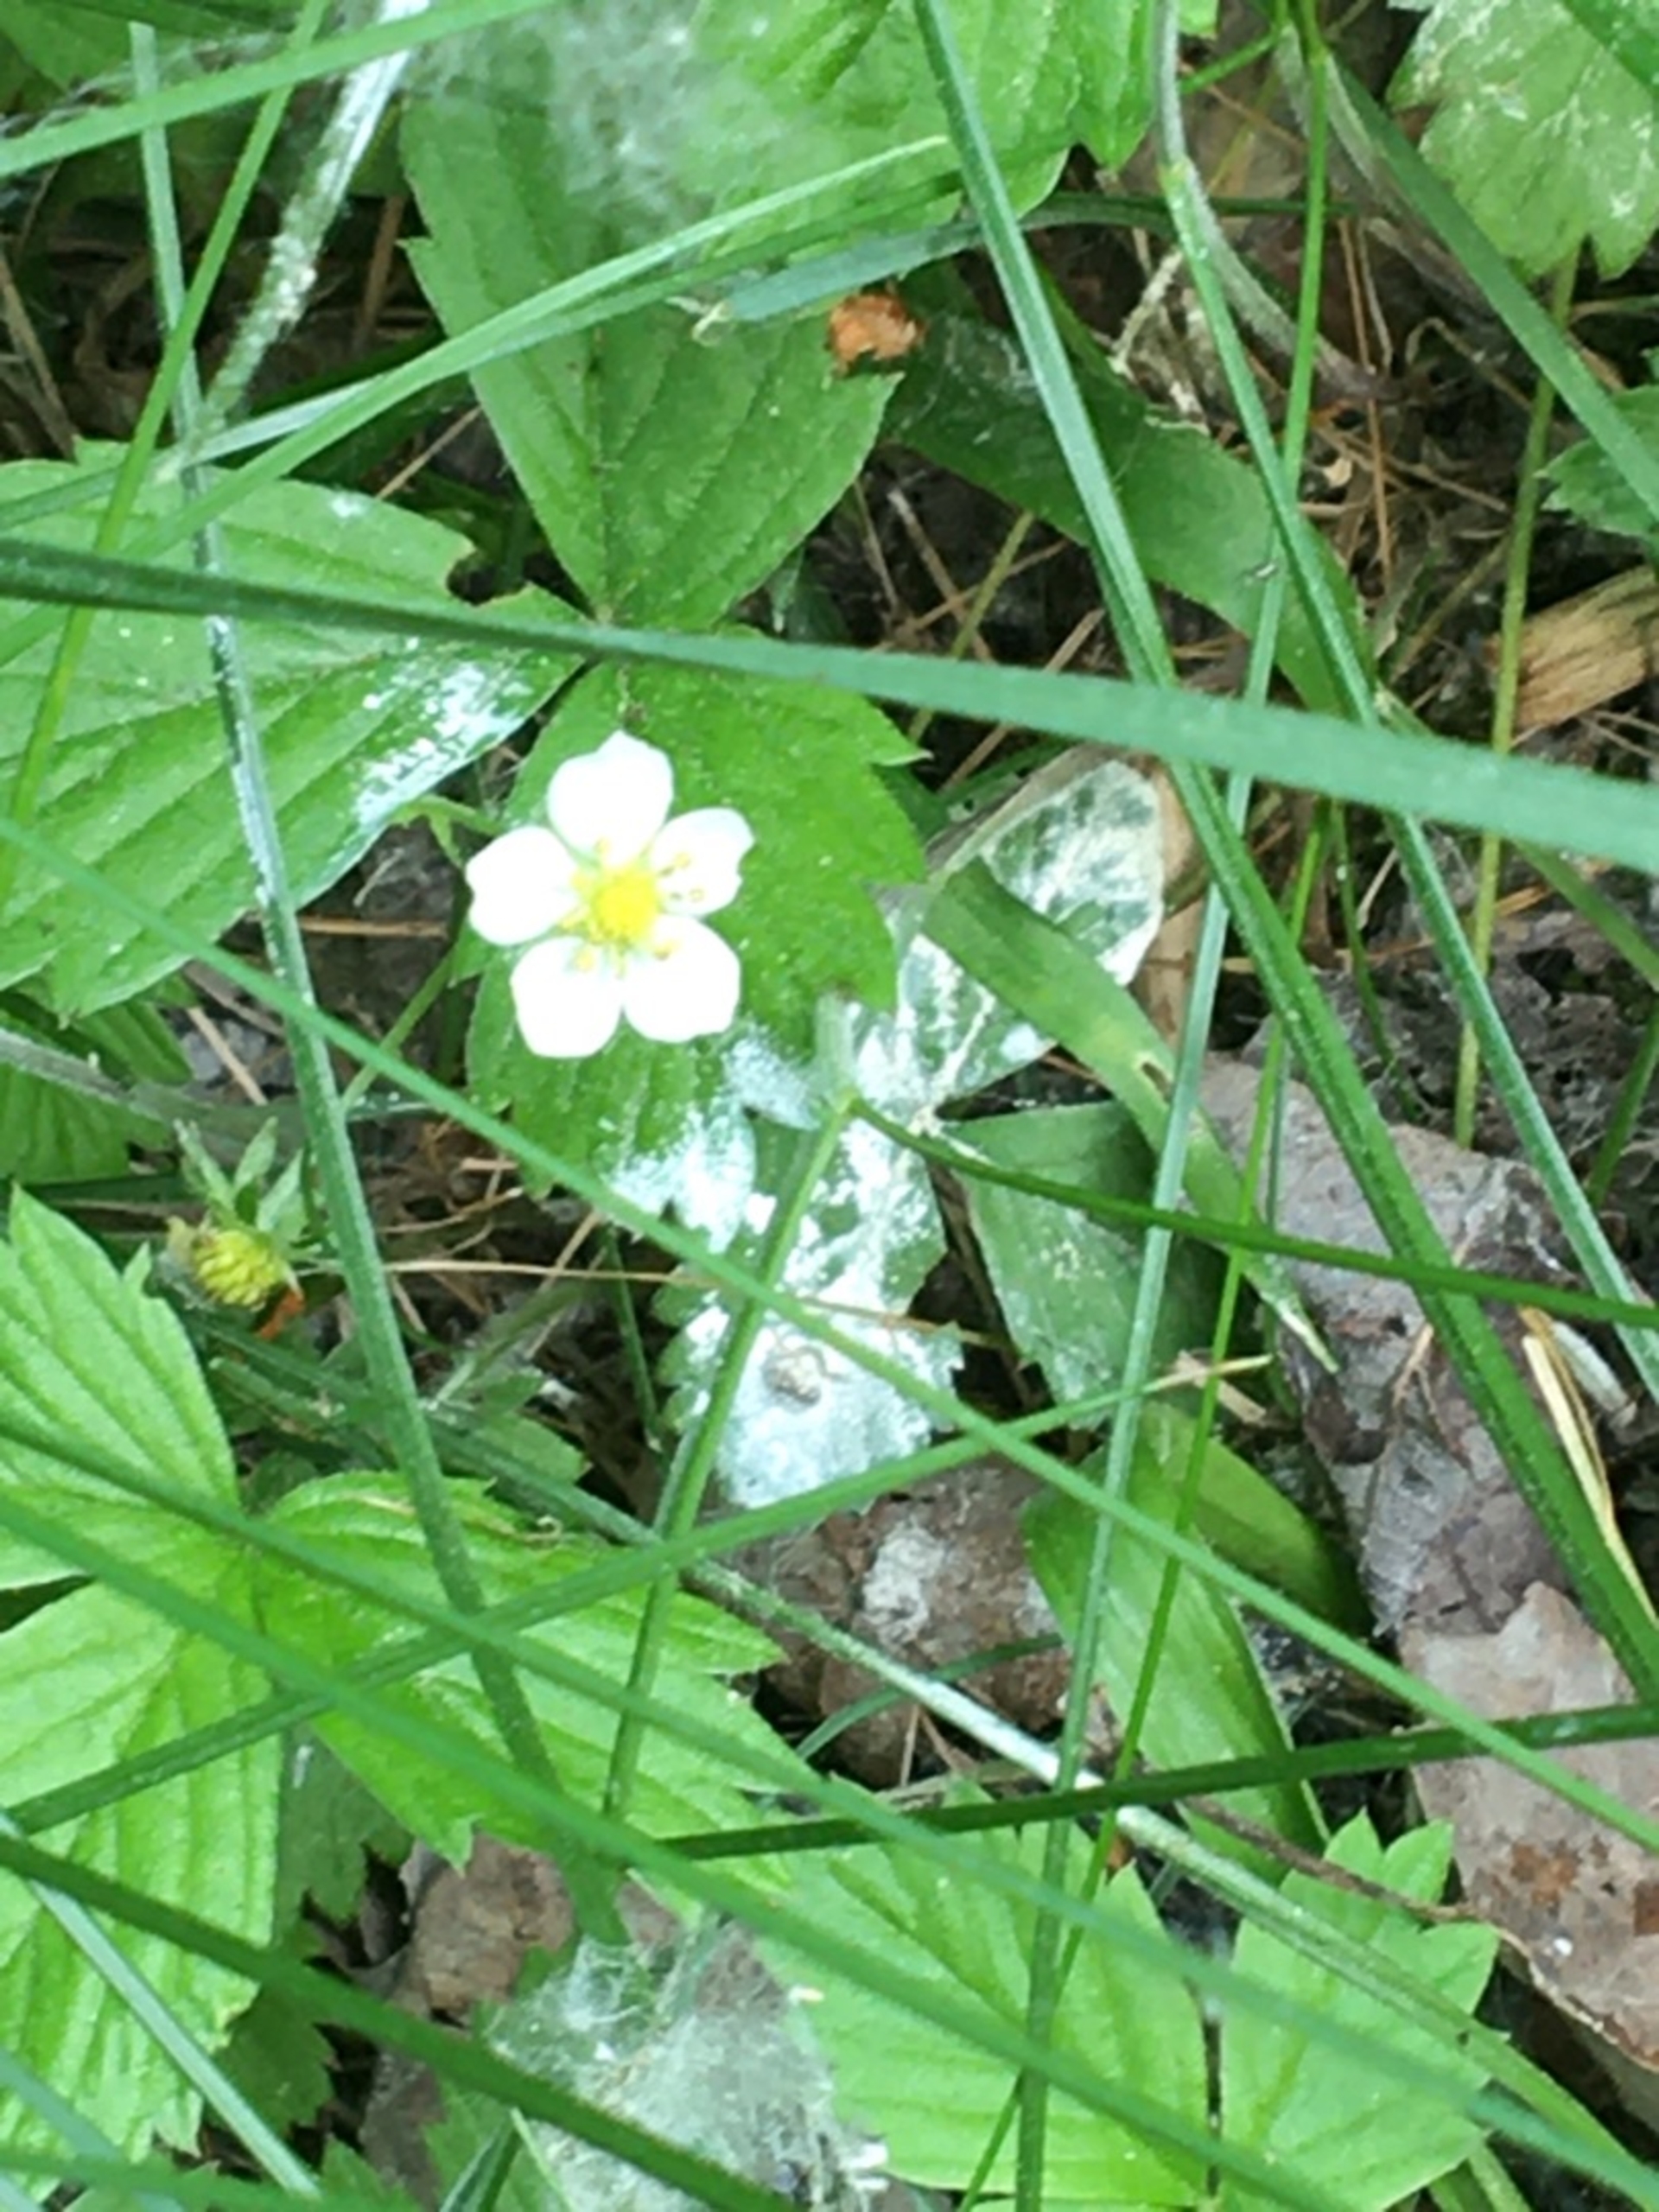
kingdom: Plantae
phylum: Tracheophyta
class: Magnoliopsida
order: Rosales
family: Rosaceae
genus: Fragaria
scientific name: Fragaria vesca
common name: Skov-jordbær
